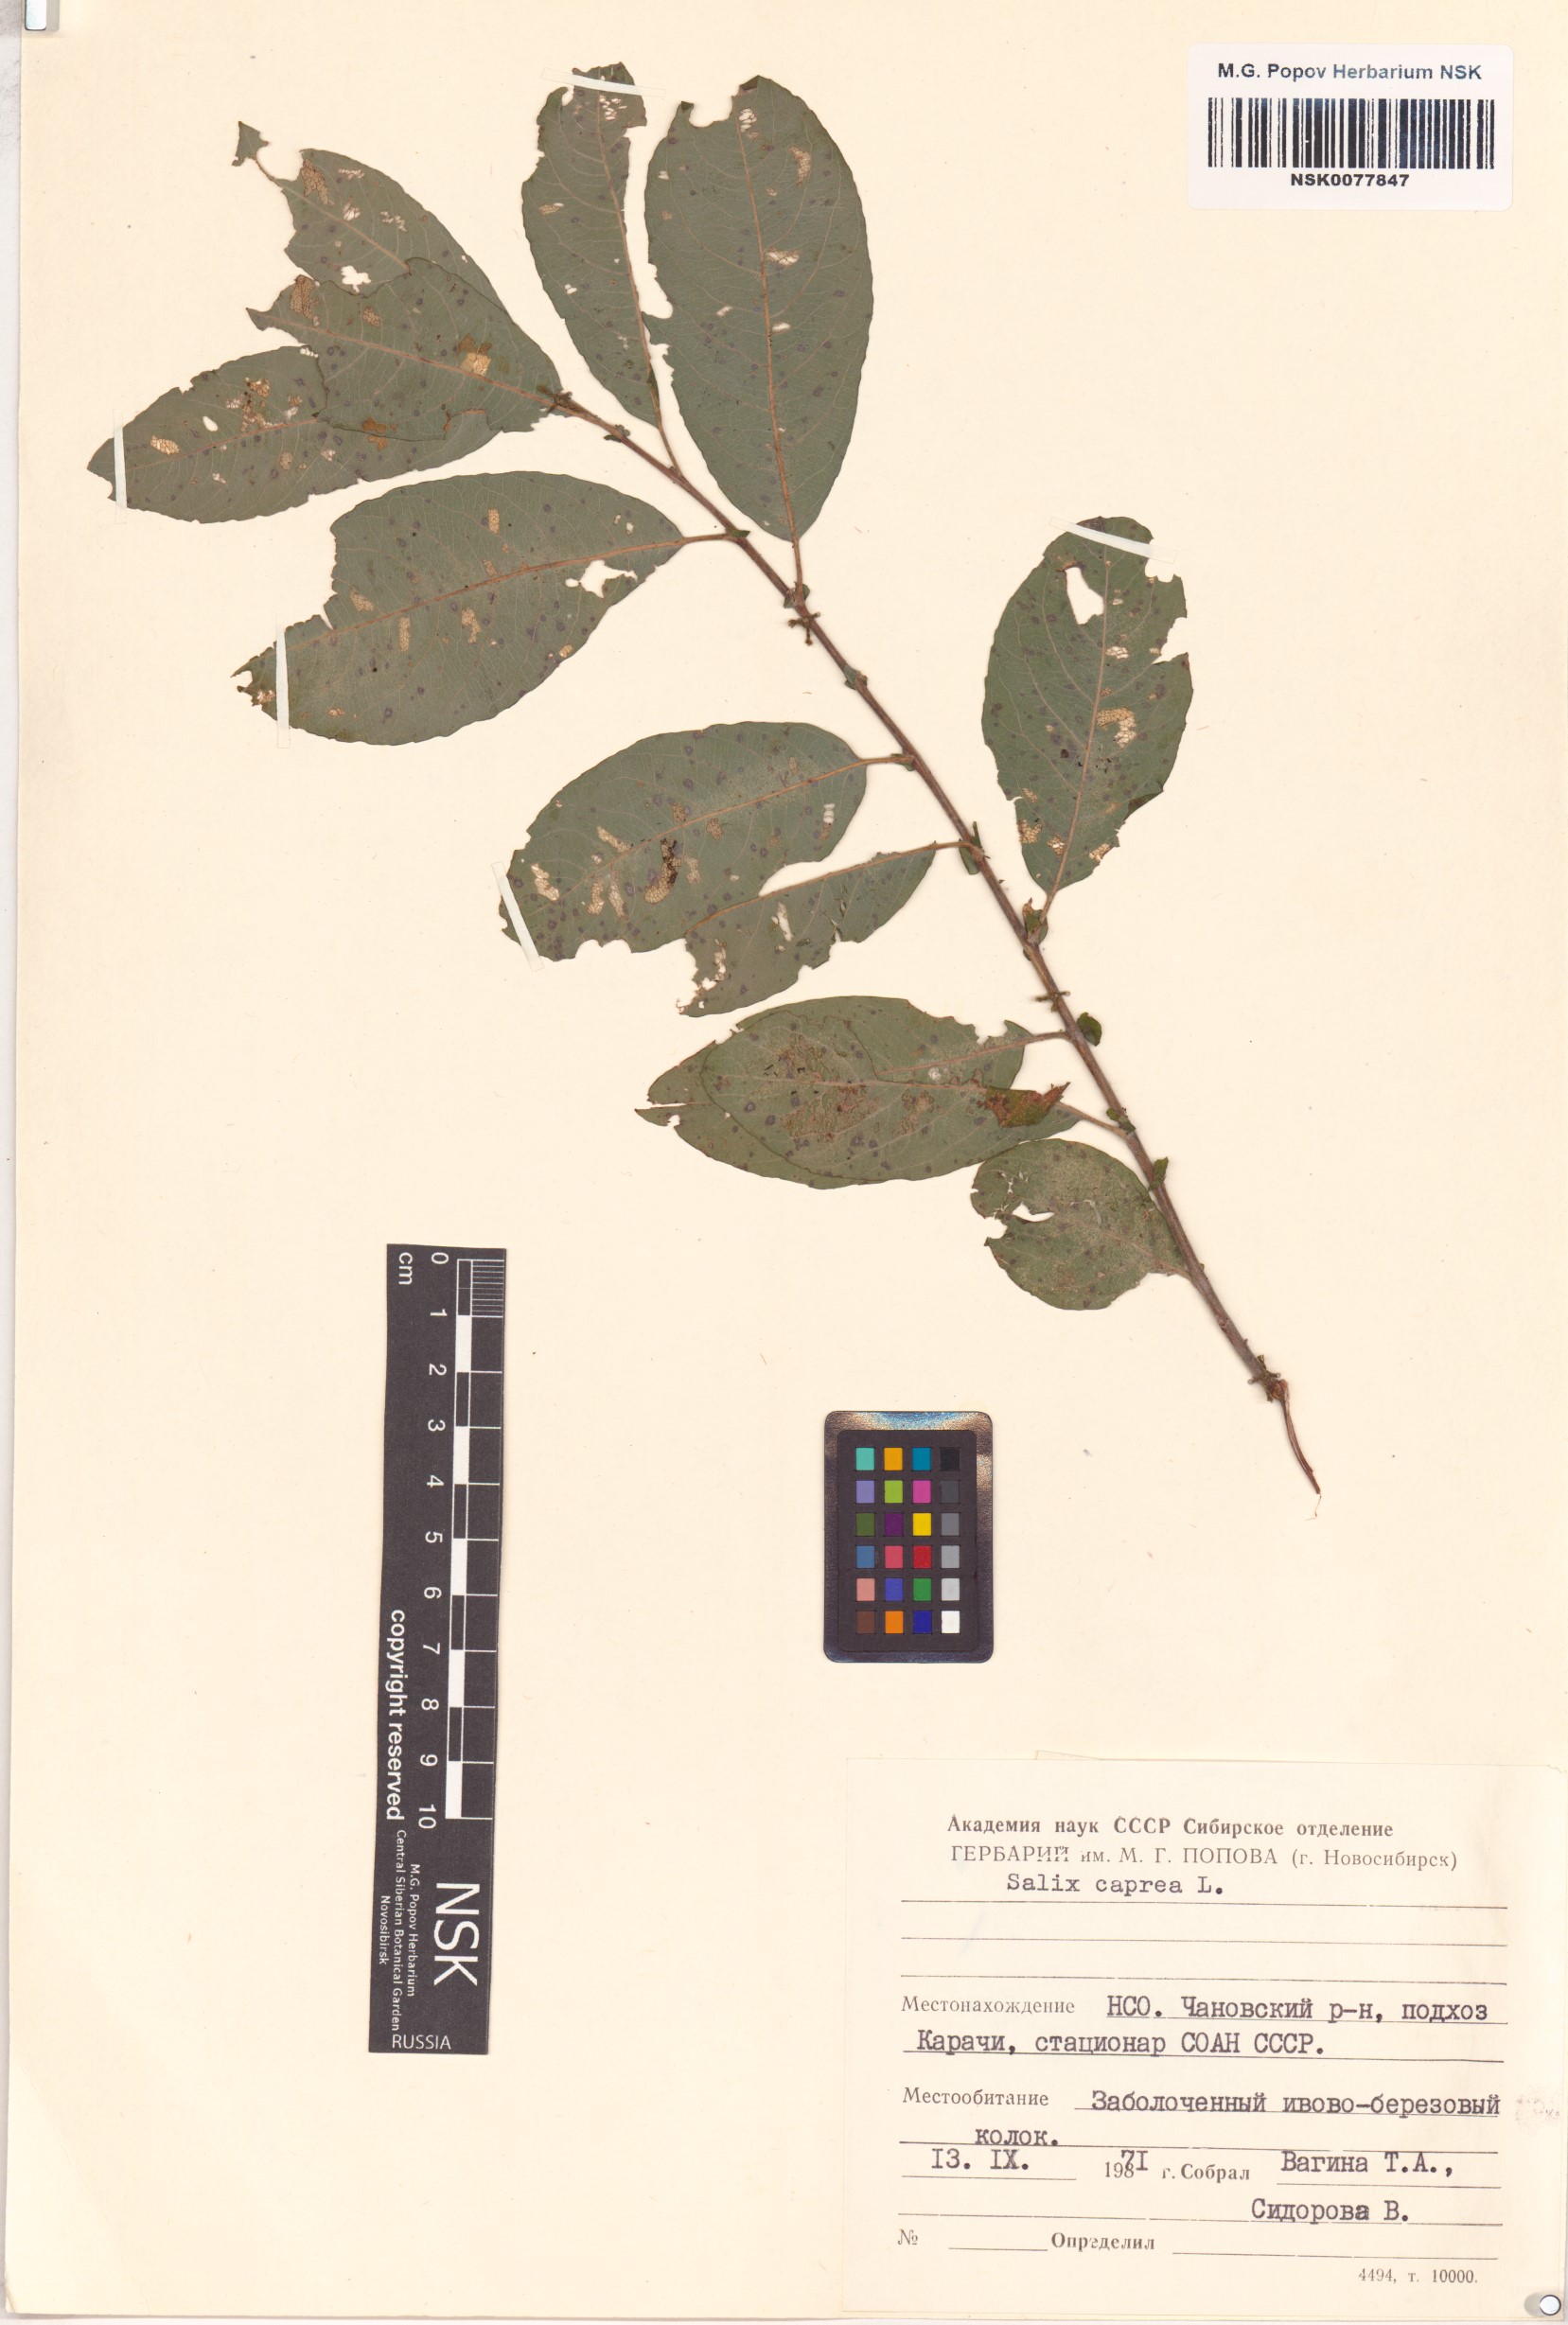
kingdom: Plantae
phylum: Tracheophyta
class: Magnoliopsida
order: Malpighiales
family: Salicaceae
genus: Salix
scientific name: Salix caprea
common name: Goat willow
